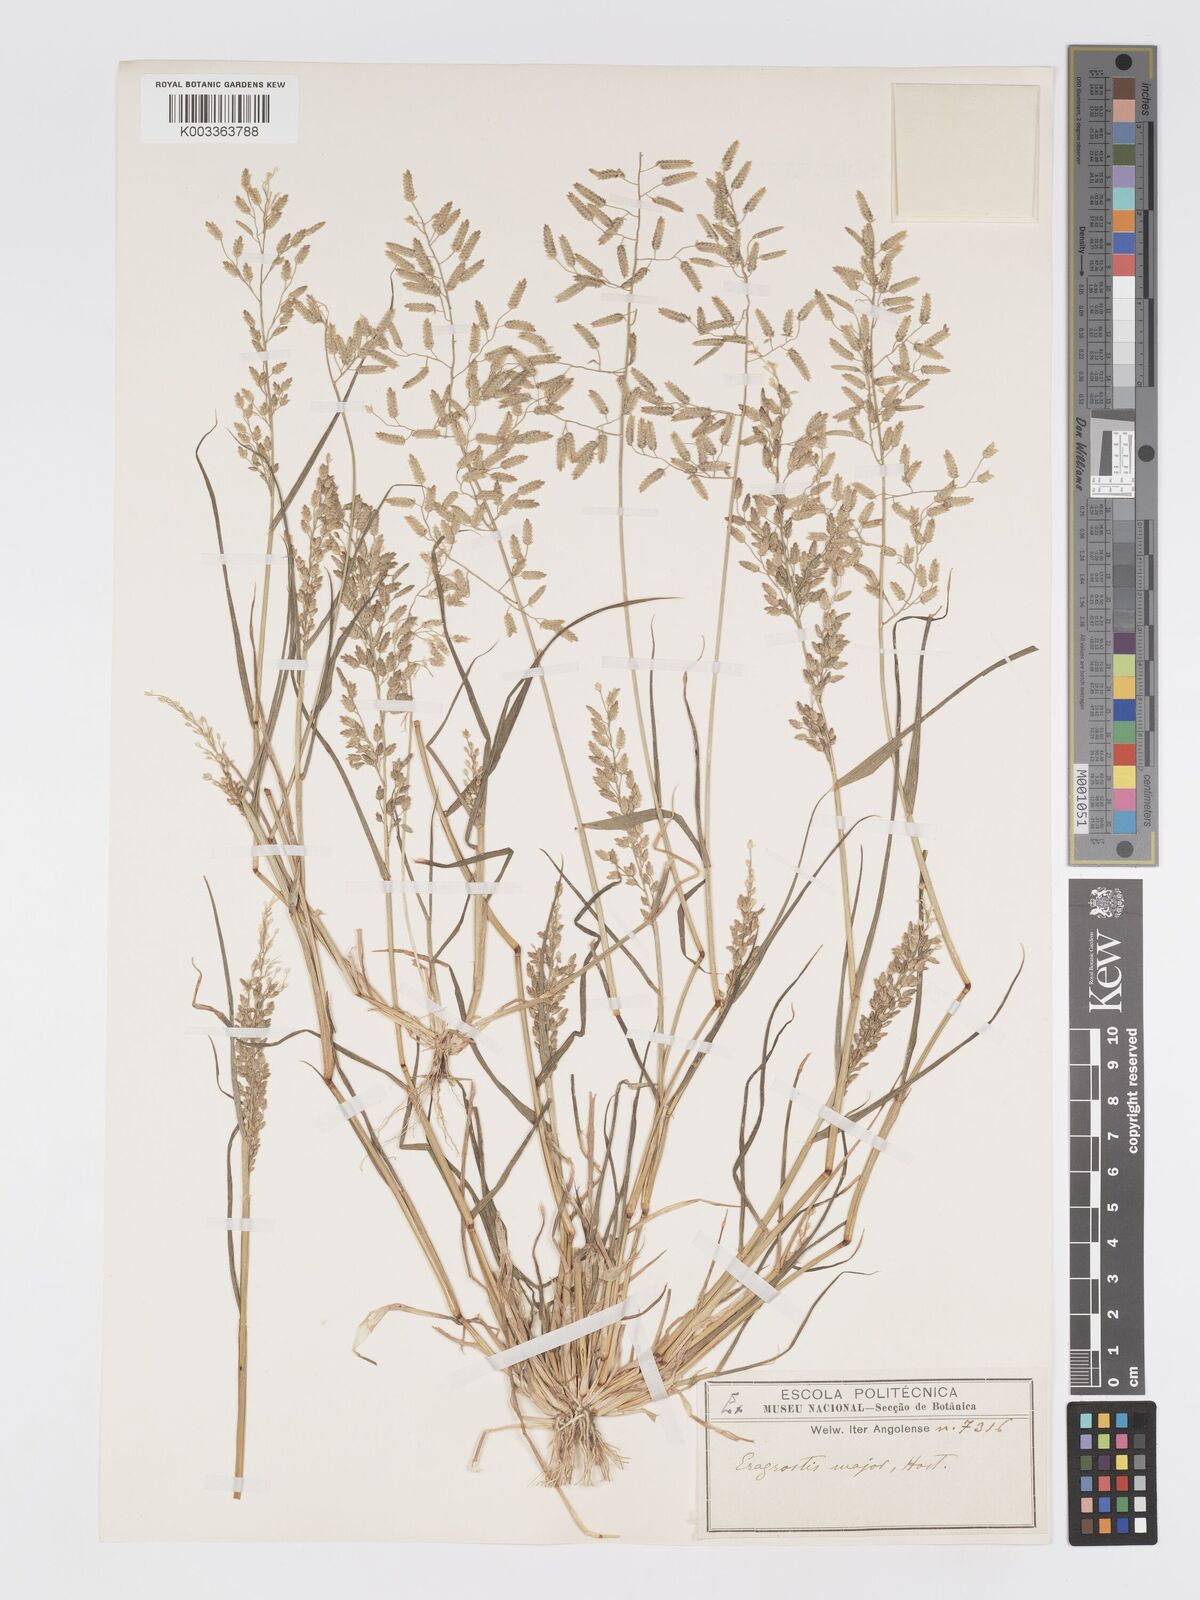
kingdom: Plantae
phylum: Tracheophyta
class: Liliopsida
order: Poales
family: Poaceae
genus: Eragrostis
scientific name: Eragrostis cilianensis
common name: Stinkgrass
